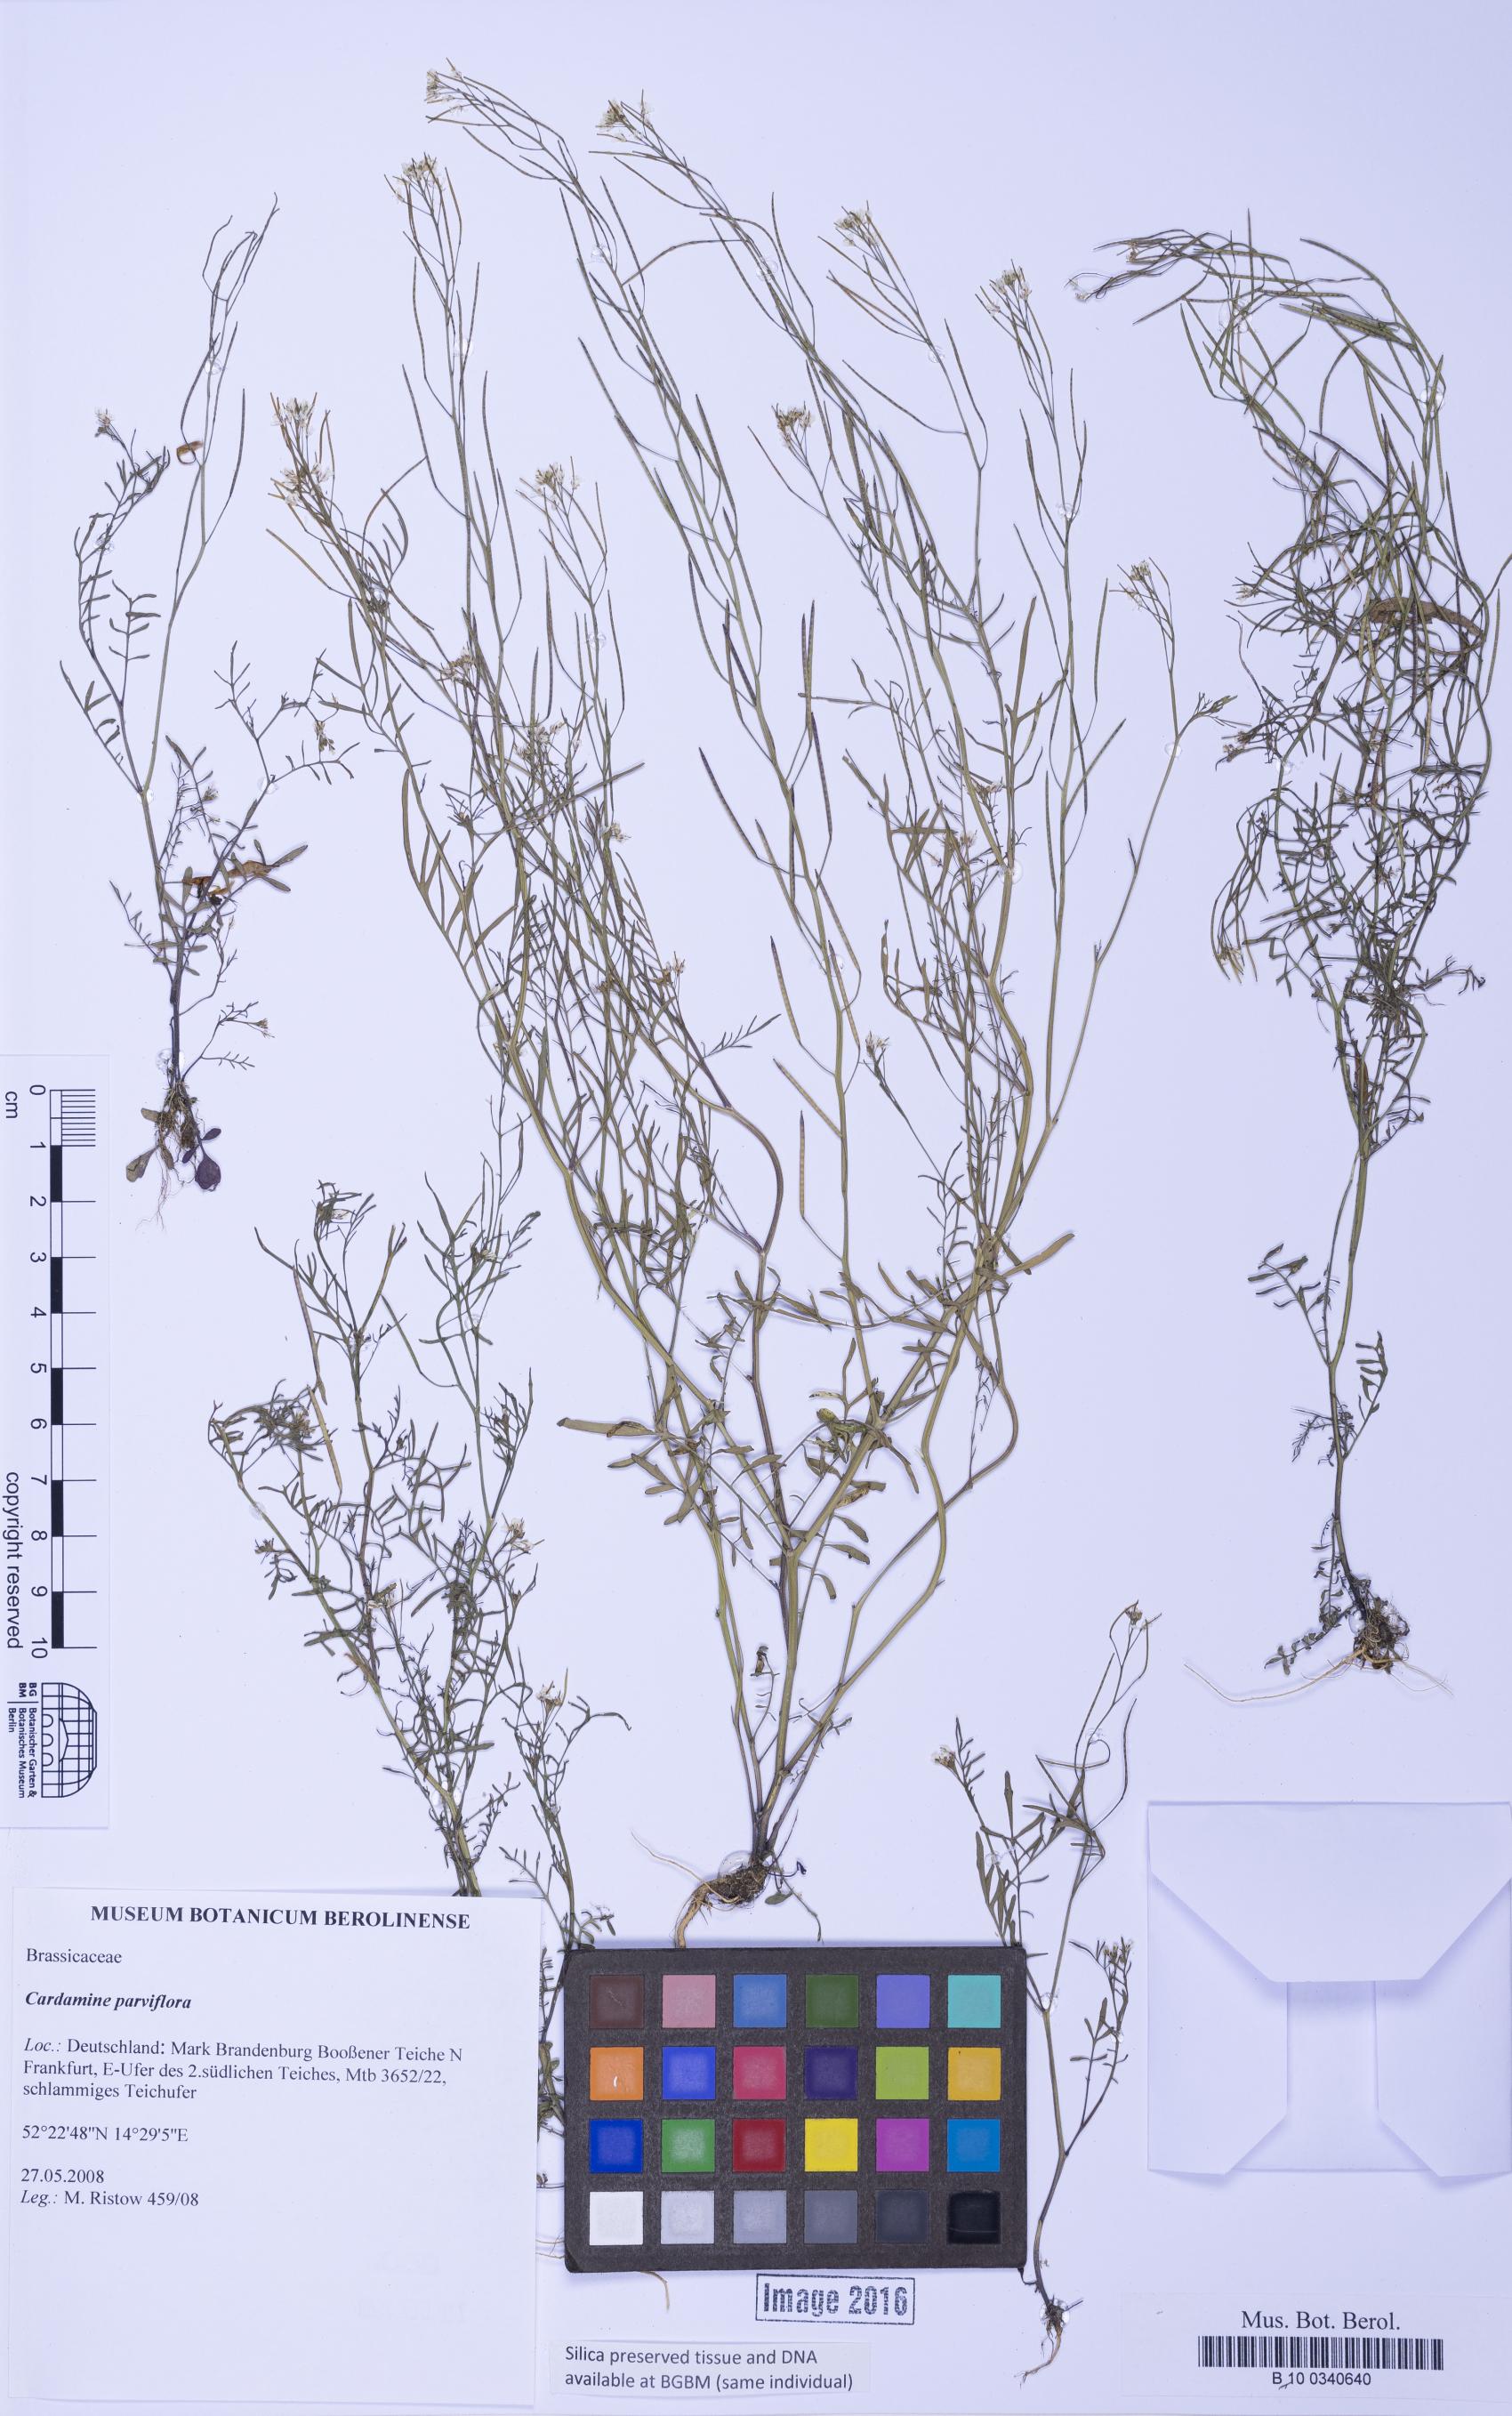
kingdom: Plantae
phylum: Tracheophyta
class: Magnoliopsida
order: Brassicales
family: Brassicaceae
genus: Cardamine
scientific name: Cardamine parviflora
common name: Sand bittercress
